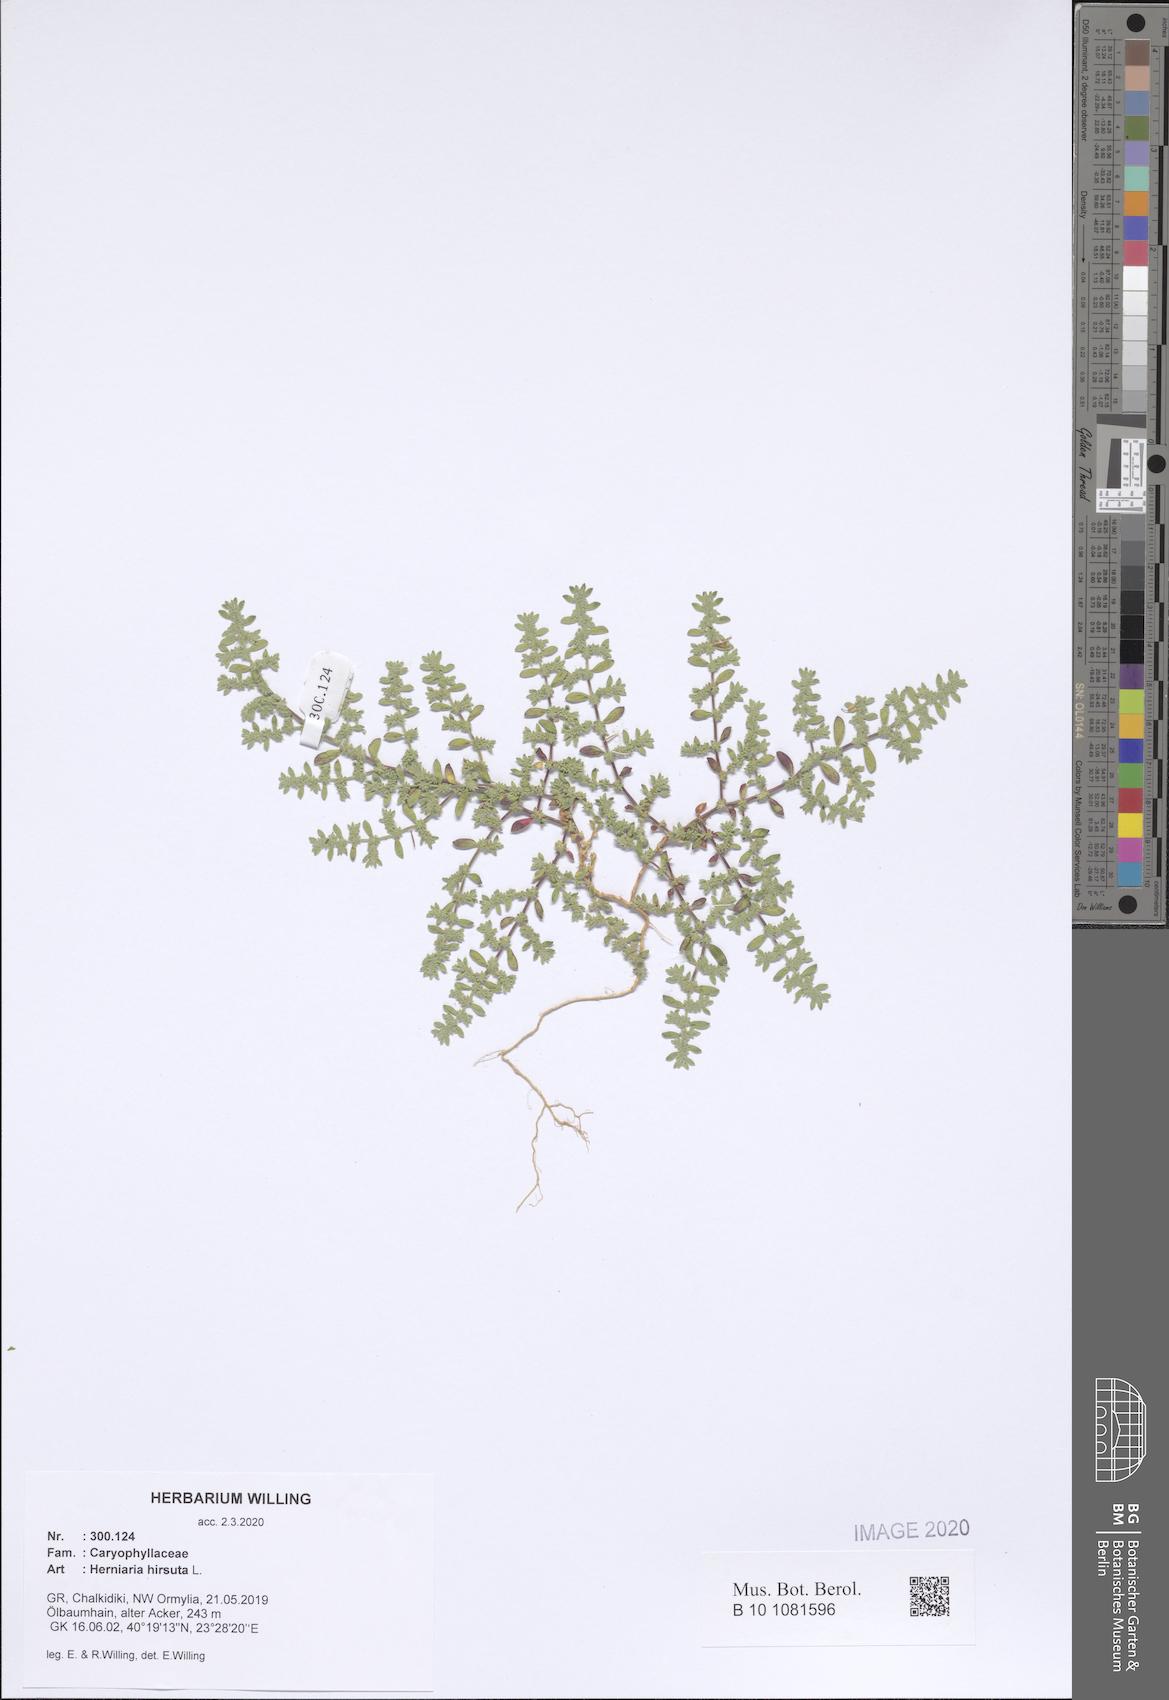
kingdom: Plantae
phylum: Tracheophyta
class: Magnoliopsida
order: Caryophyllales
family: Caryophyllaceae
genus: Herniaria
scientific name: Herniaria hirsuta
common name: Hairy rupturewort
